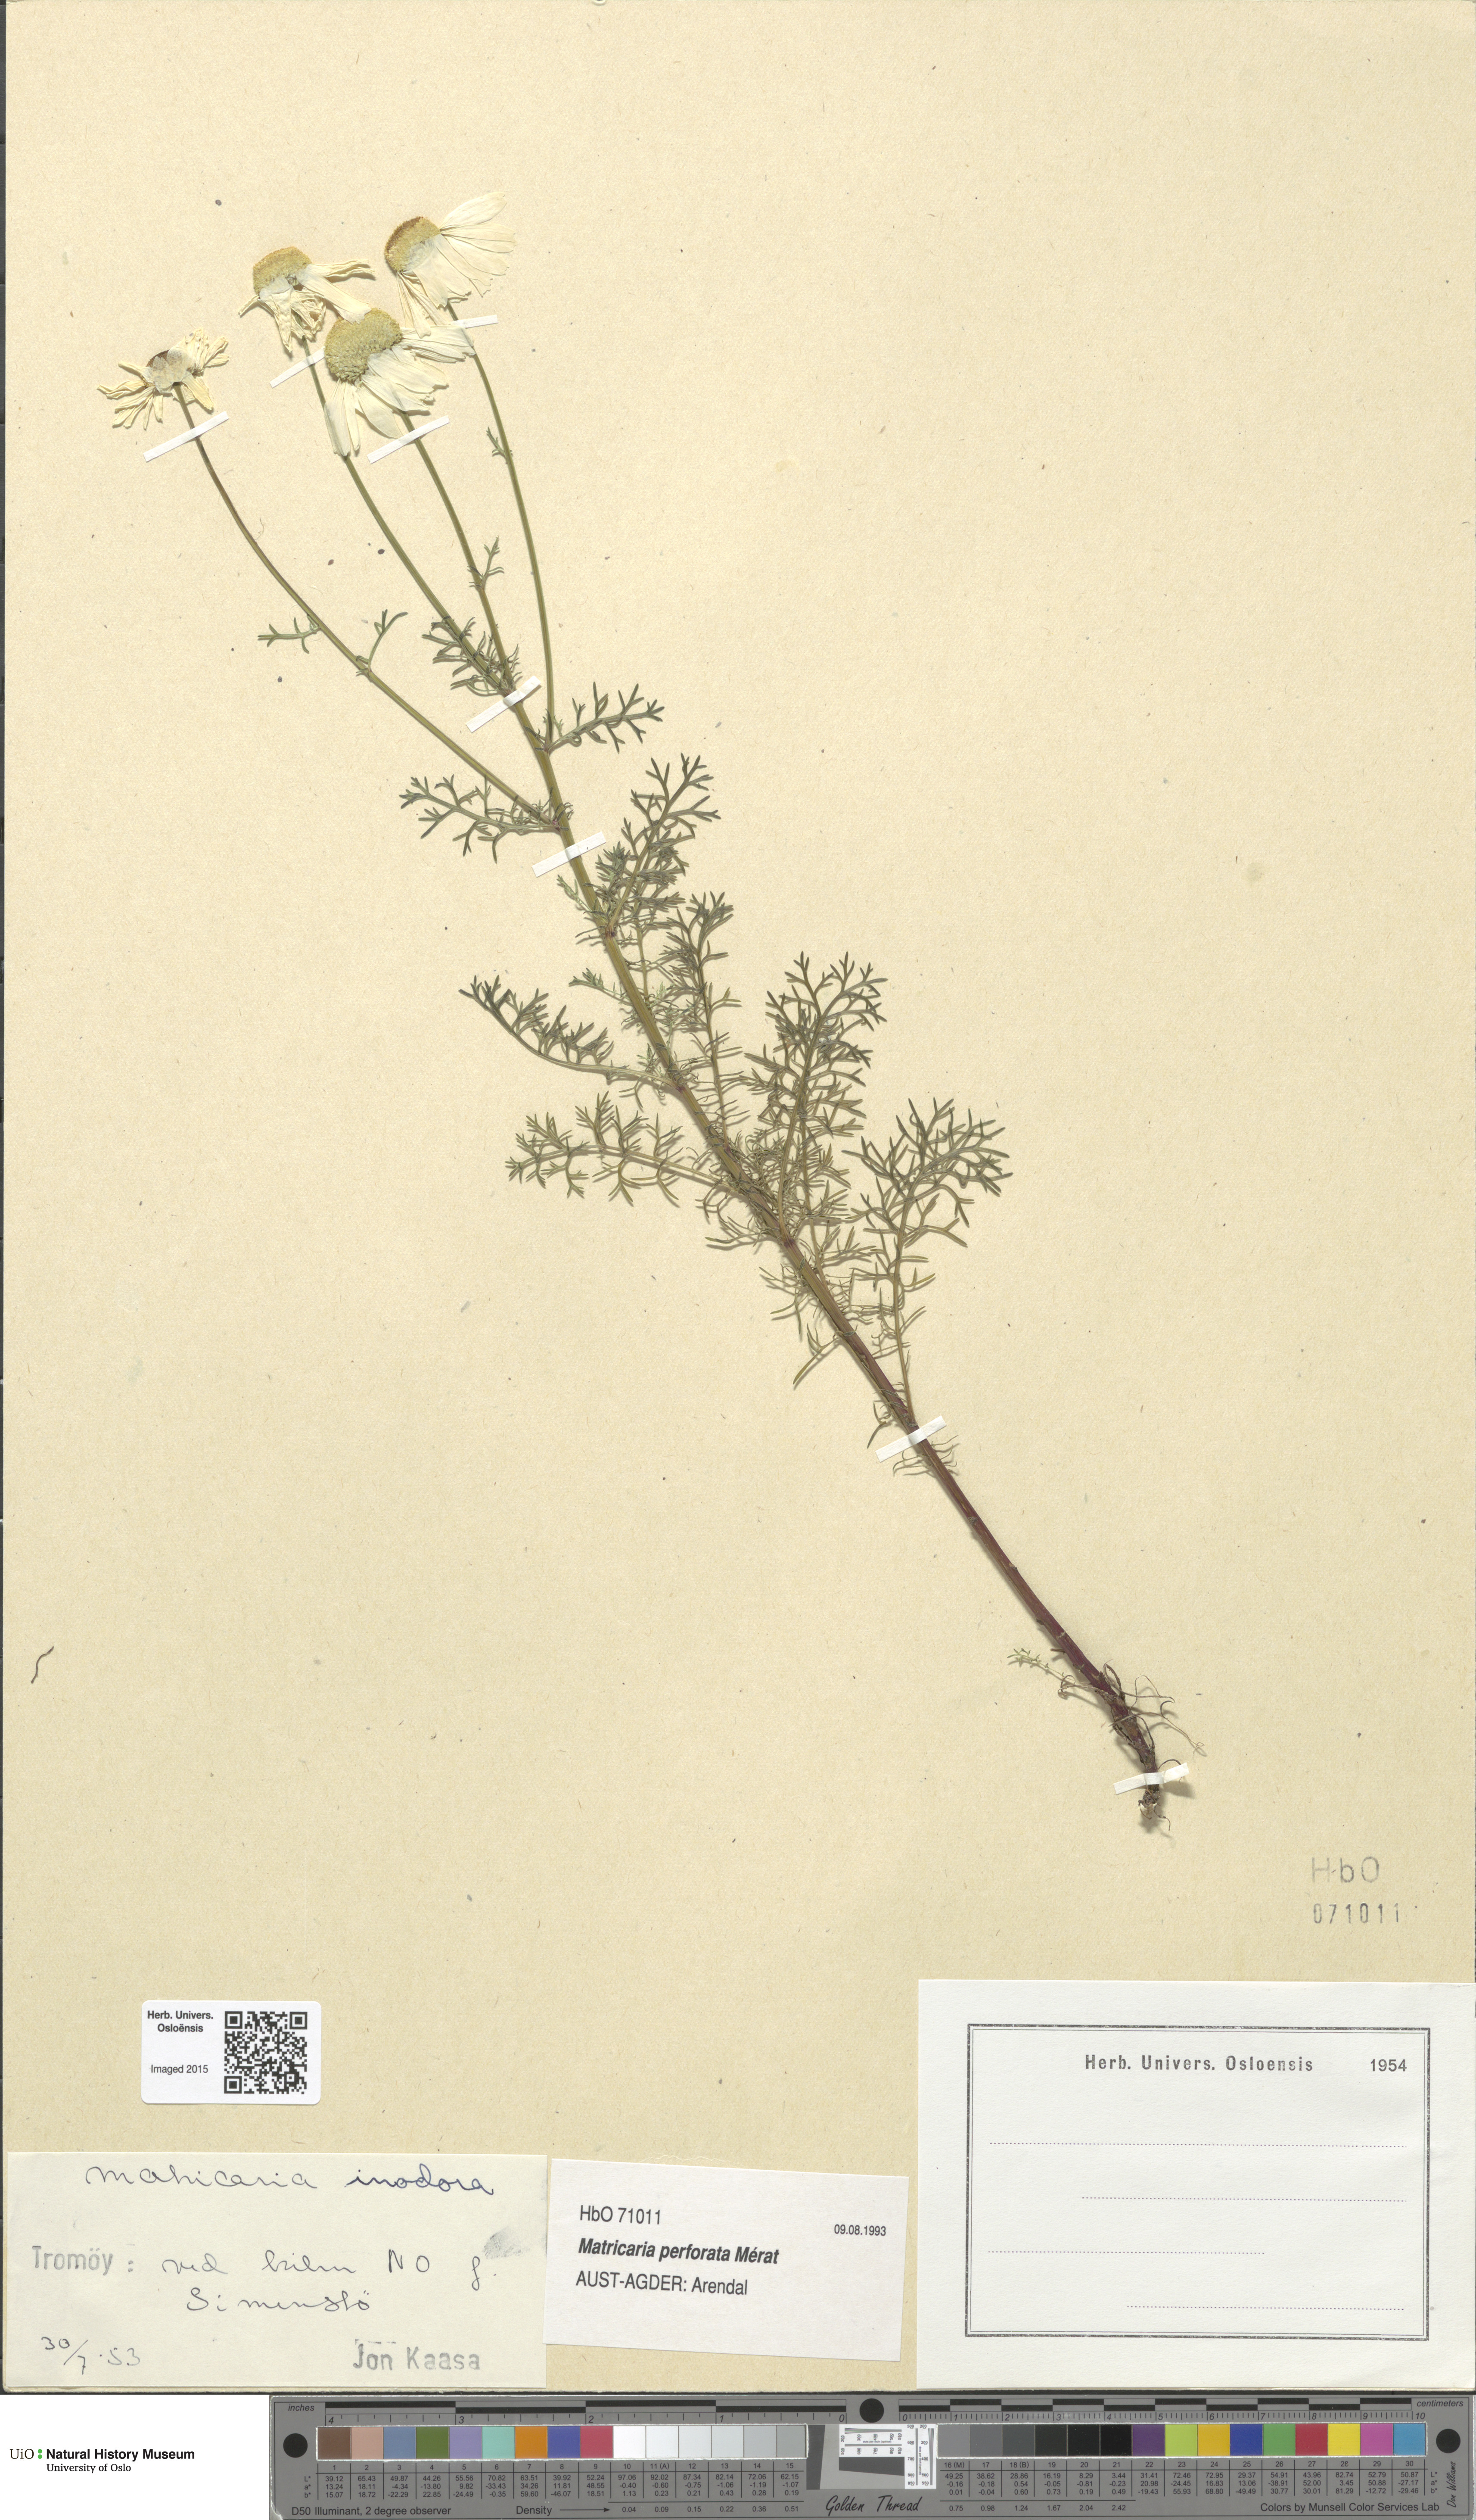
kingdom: Plantae
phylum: Tracheophyta
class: Magnoliopsida
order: Asterales
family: Asteraceae
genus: Tripleurospermum
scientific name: Tripleurospermum inodorum
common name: Scentless mayweed
